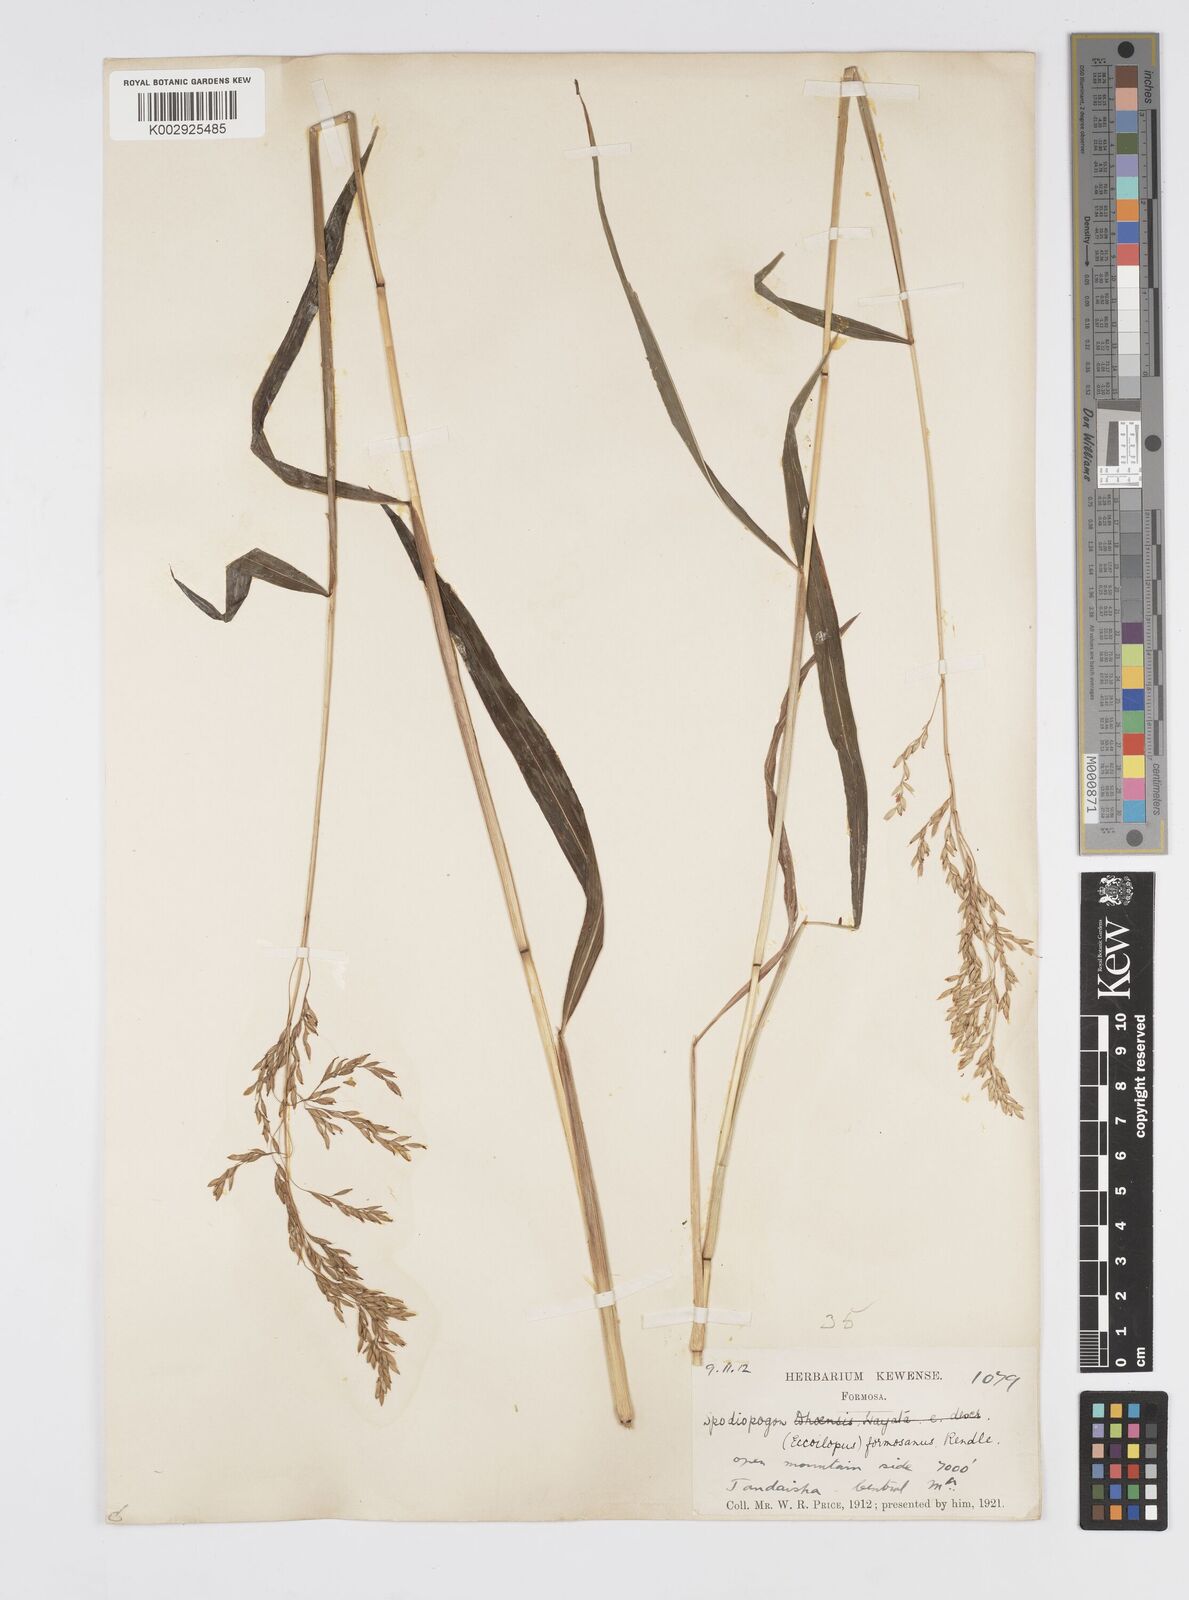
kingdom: Plantae
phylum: Tracheophyta
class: Liliopsida
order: Poales
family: Poaceae
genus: Spodiopogon
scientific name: Spodiopogon formosanus
